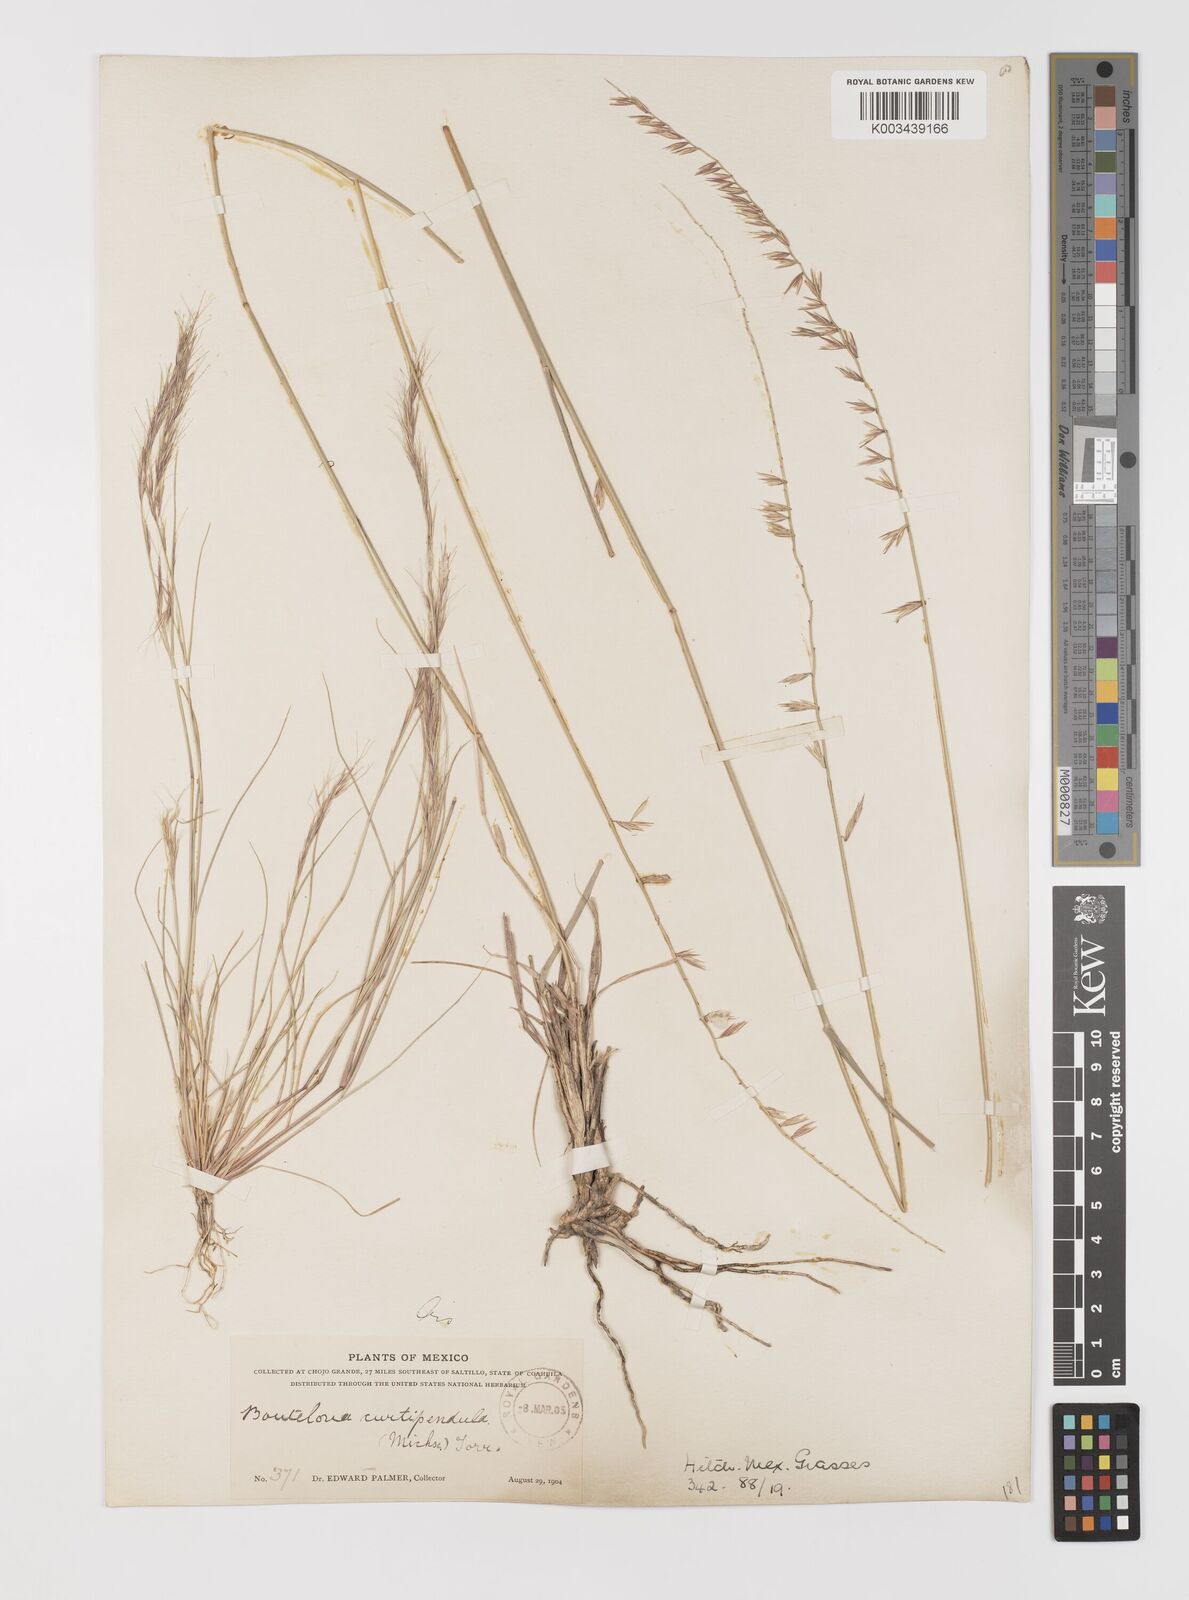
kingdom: Plantae
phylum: Tracheophyta
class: Liliopsida
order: Poales
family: Poaceae
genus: Bouteloua
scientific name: Bouteloua curtipendula
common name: Side-oats grama
